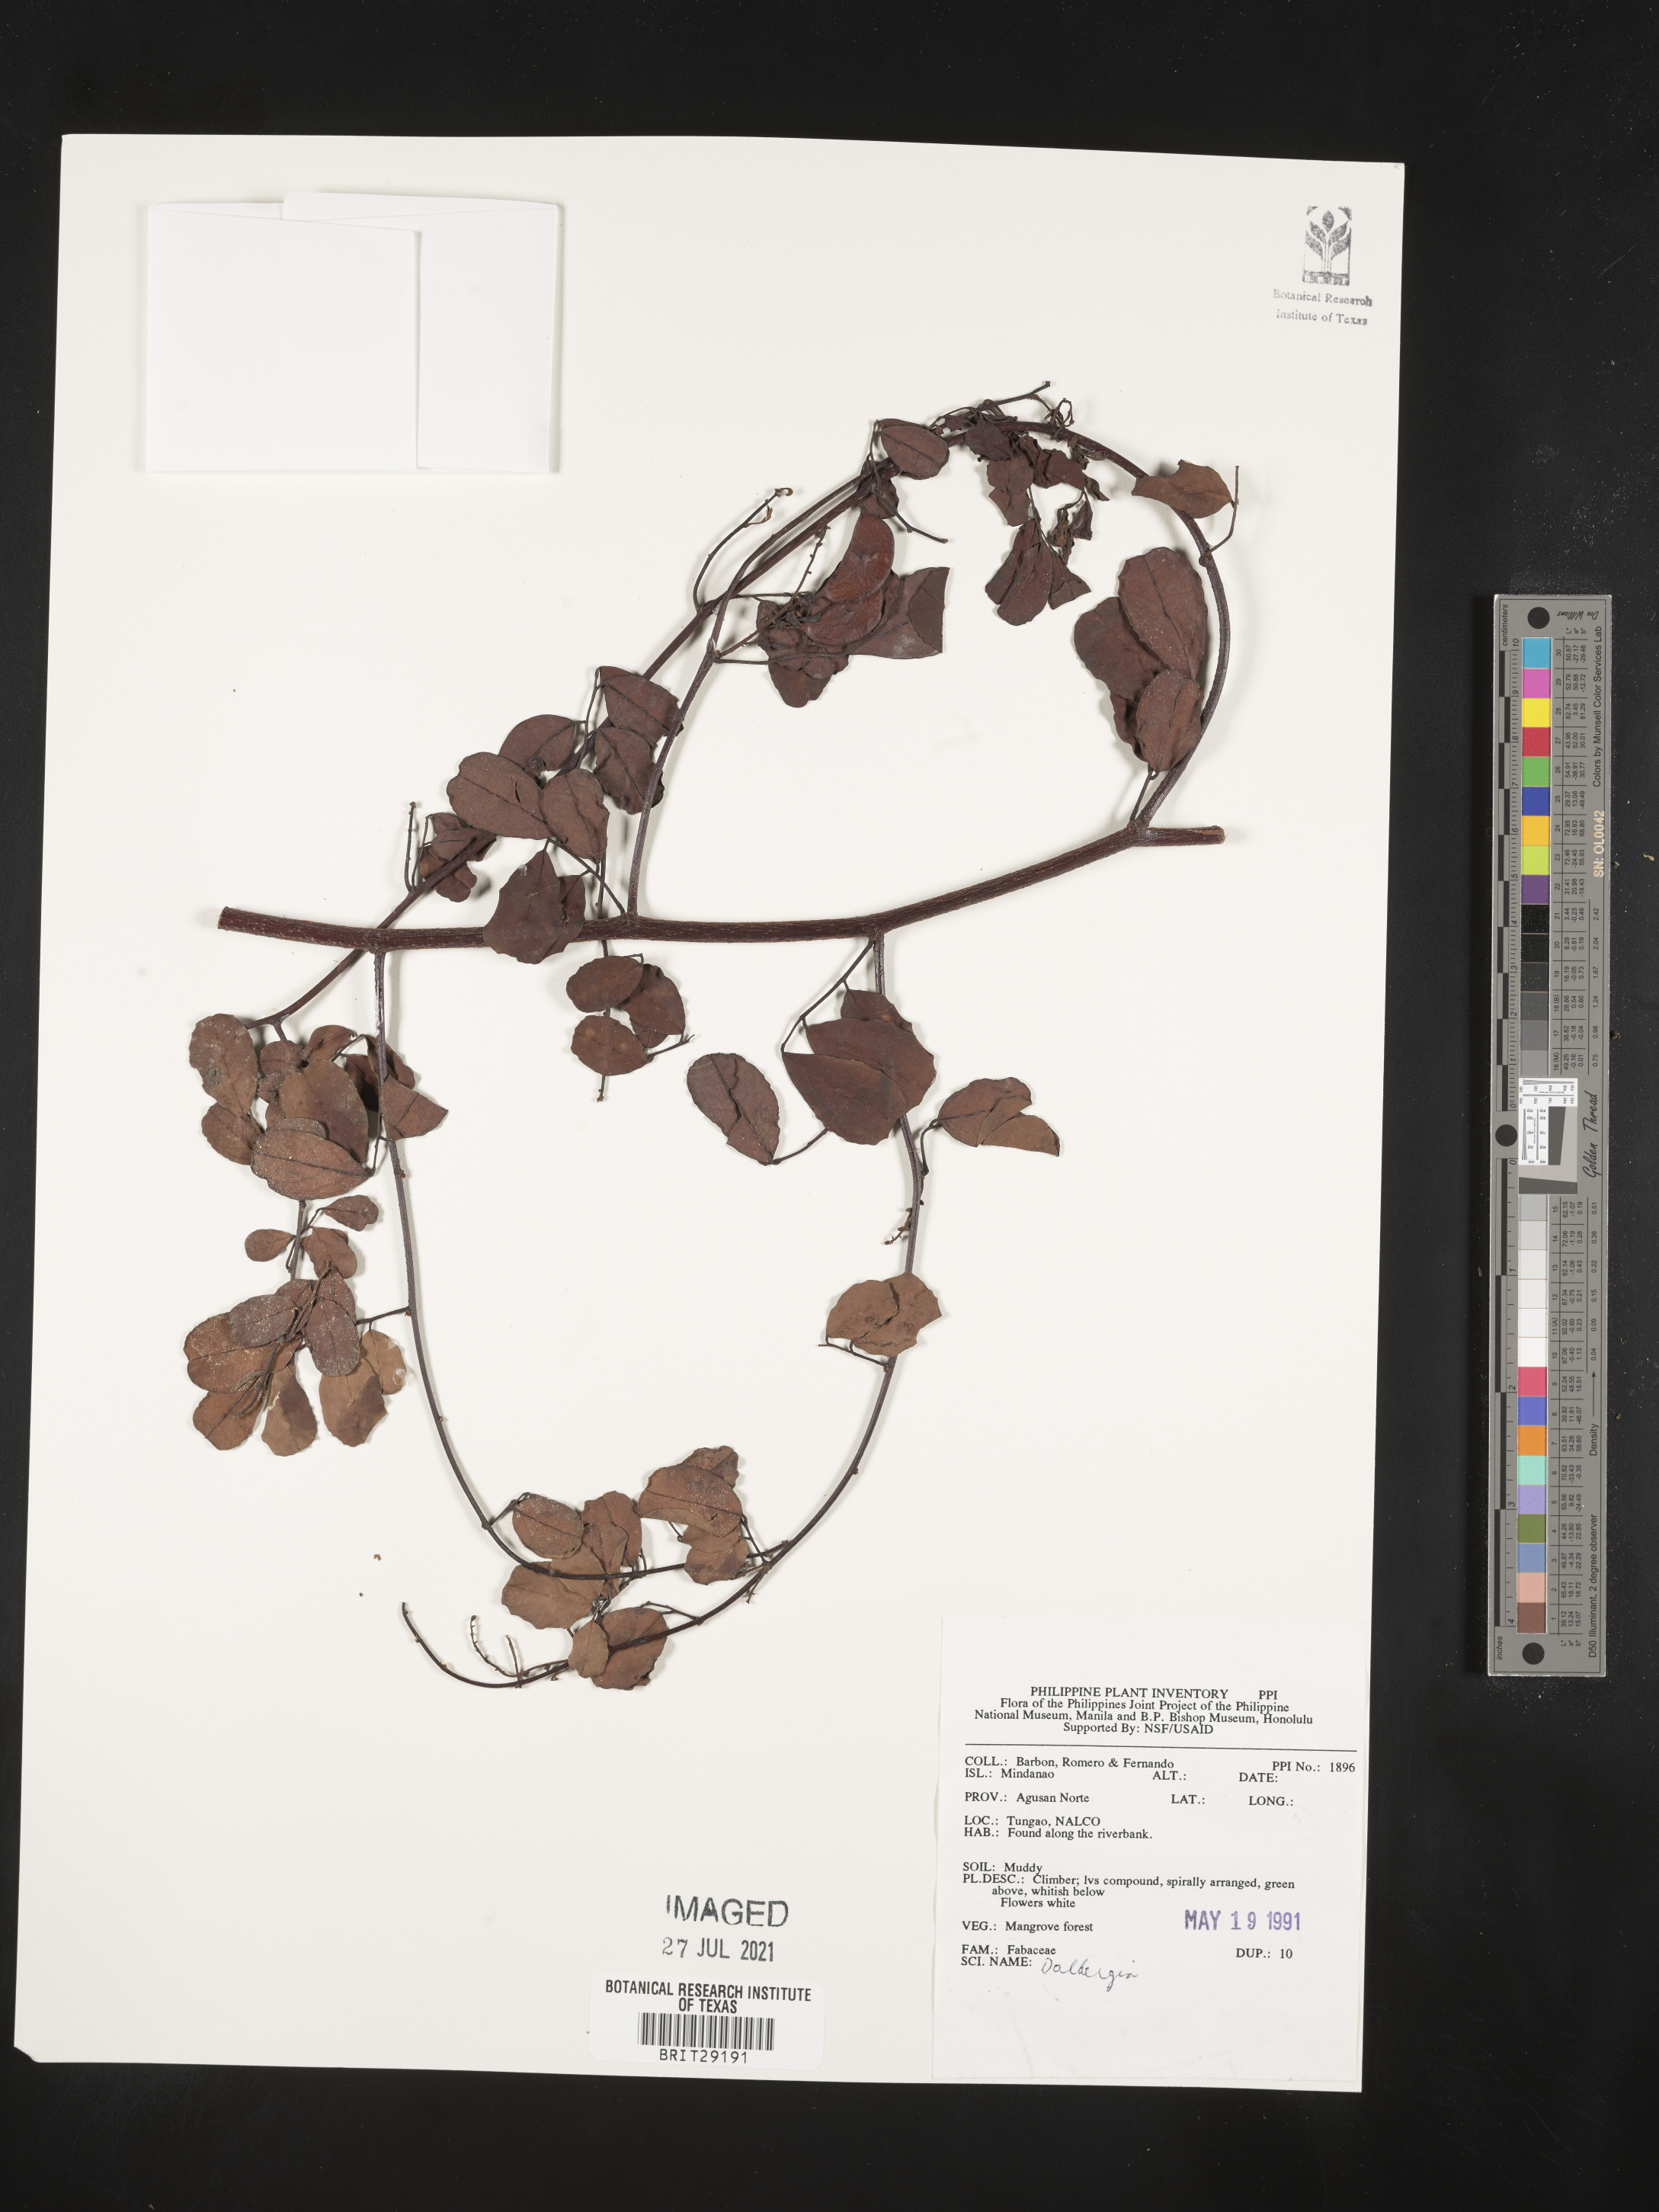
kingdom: Plantae
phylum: Tracheophyta
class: Magnoliopsida
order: Fabales
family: Fabaceae
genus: Dalbergia
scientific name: Dalbergia
